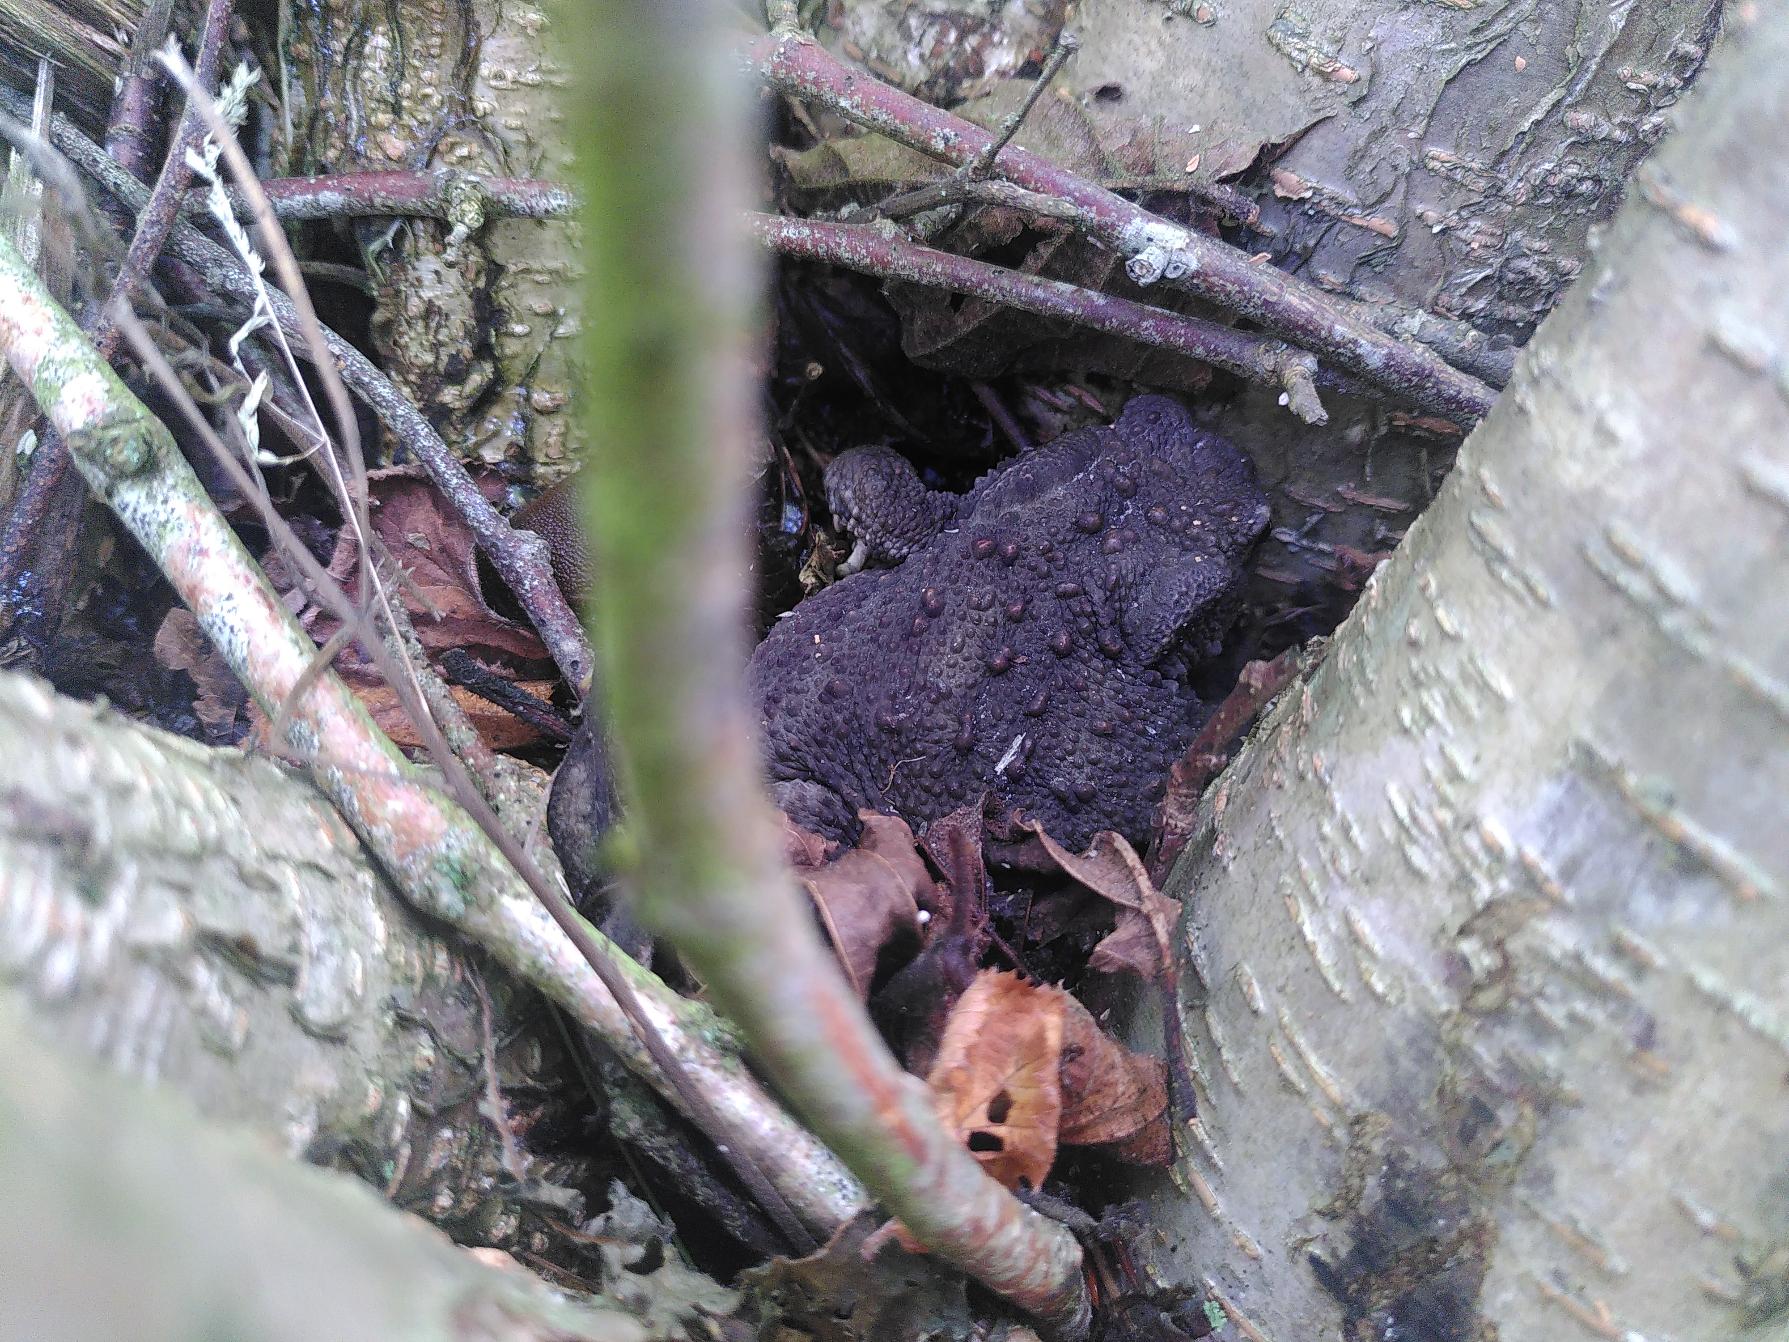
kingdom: Animalia
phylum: Chordata
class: Amphibia
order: Anura
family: Bufonidae
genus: Bufo
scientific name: Bufo bufo
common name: Skrubtudse
